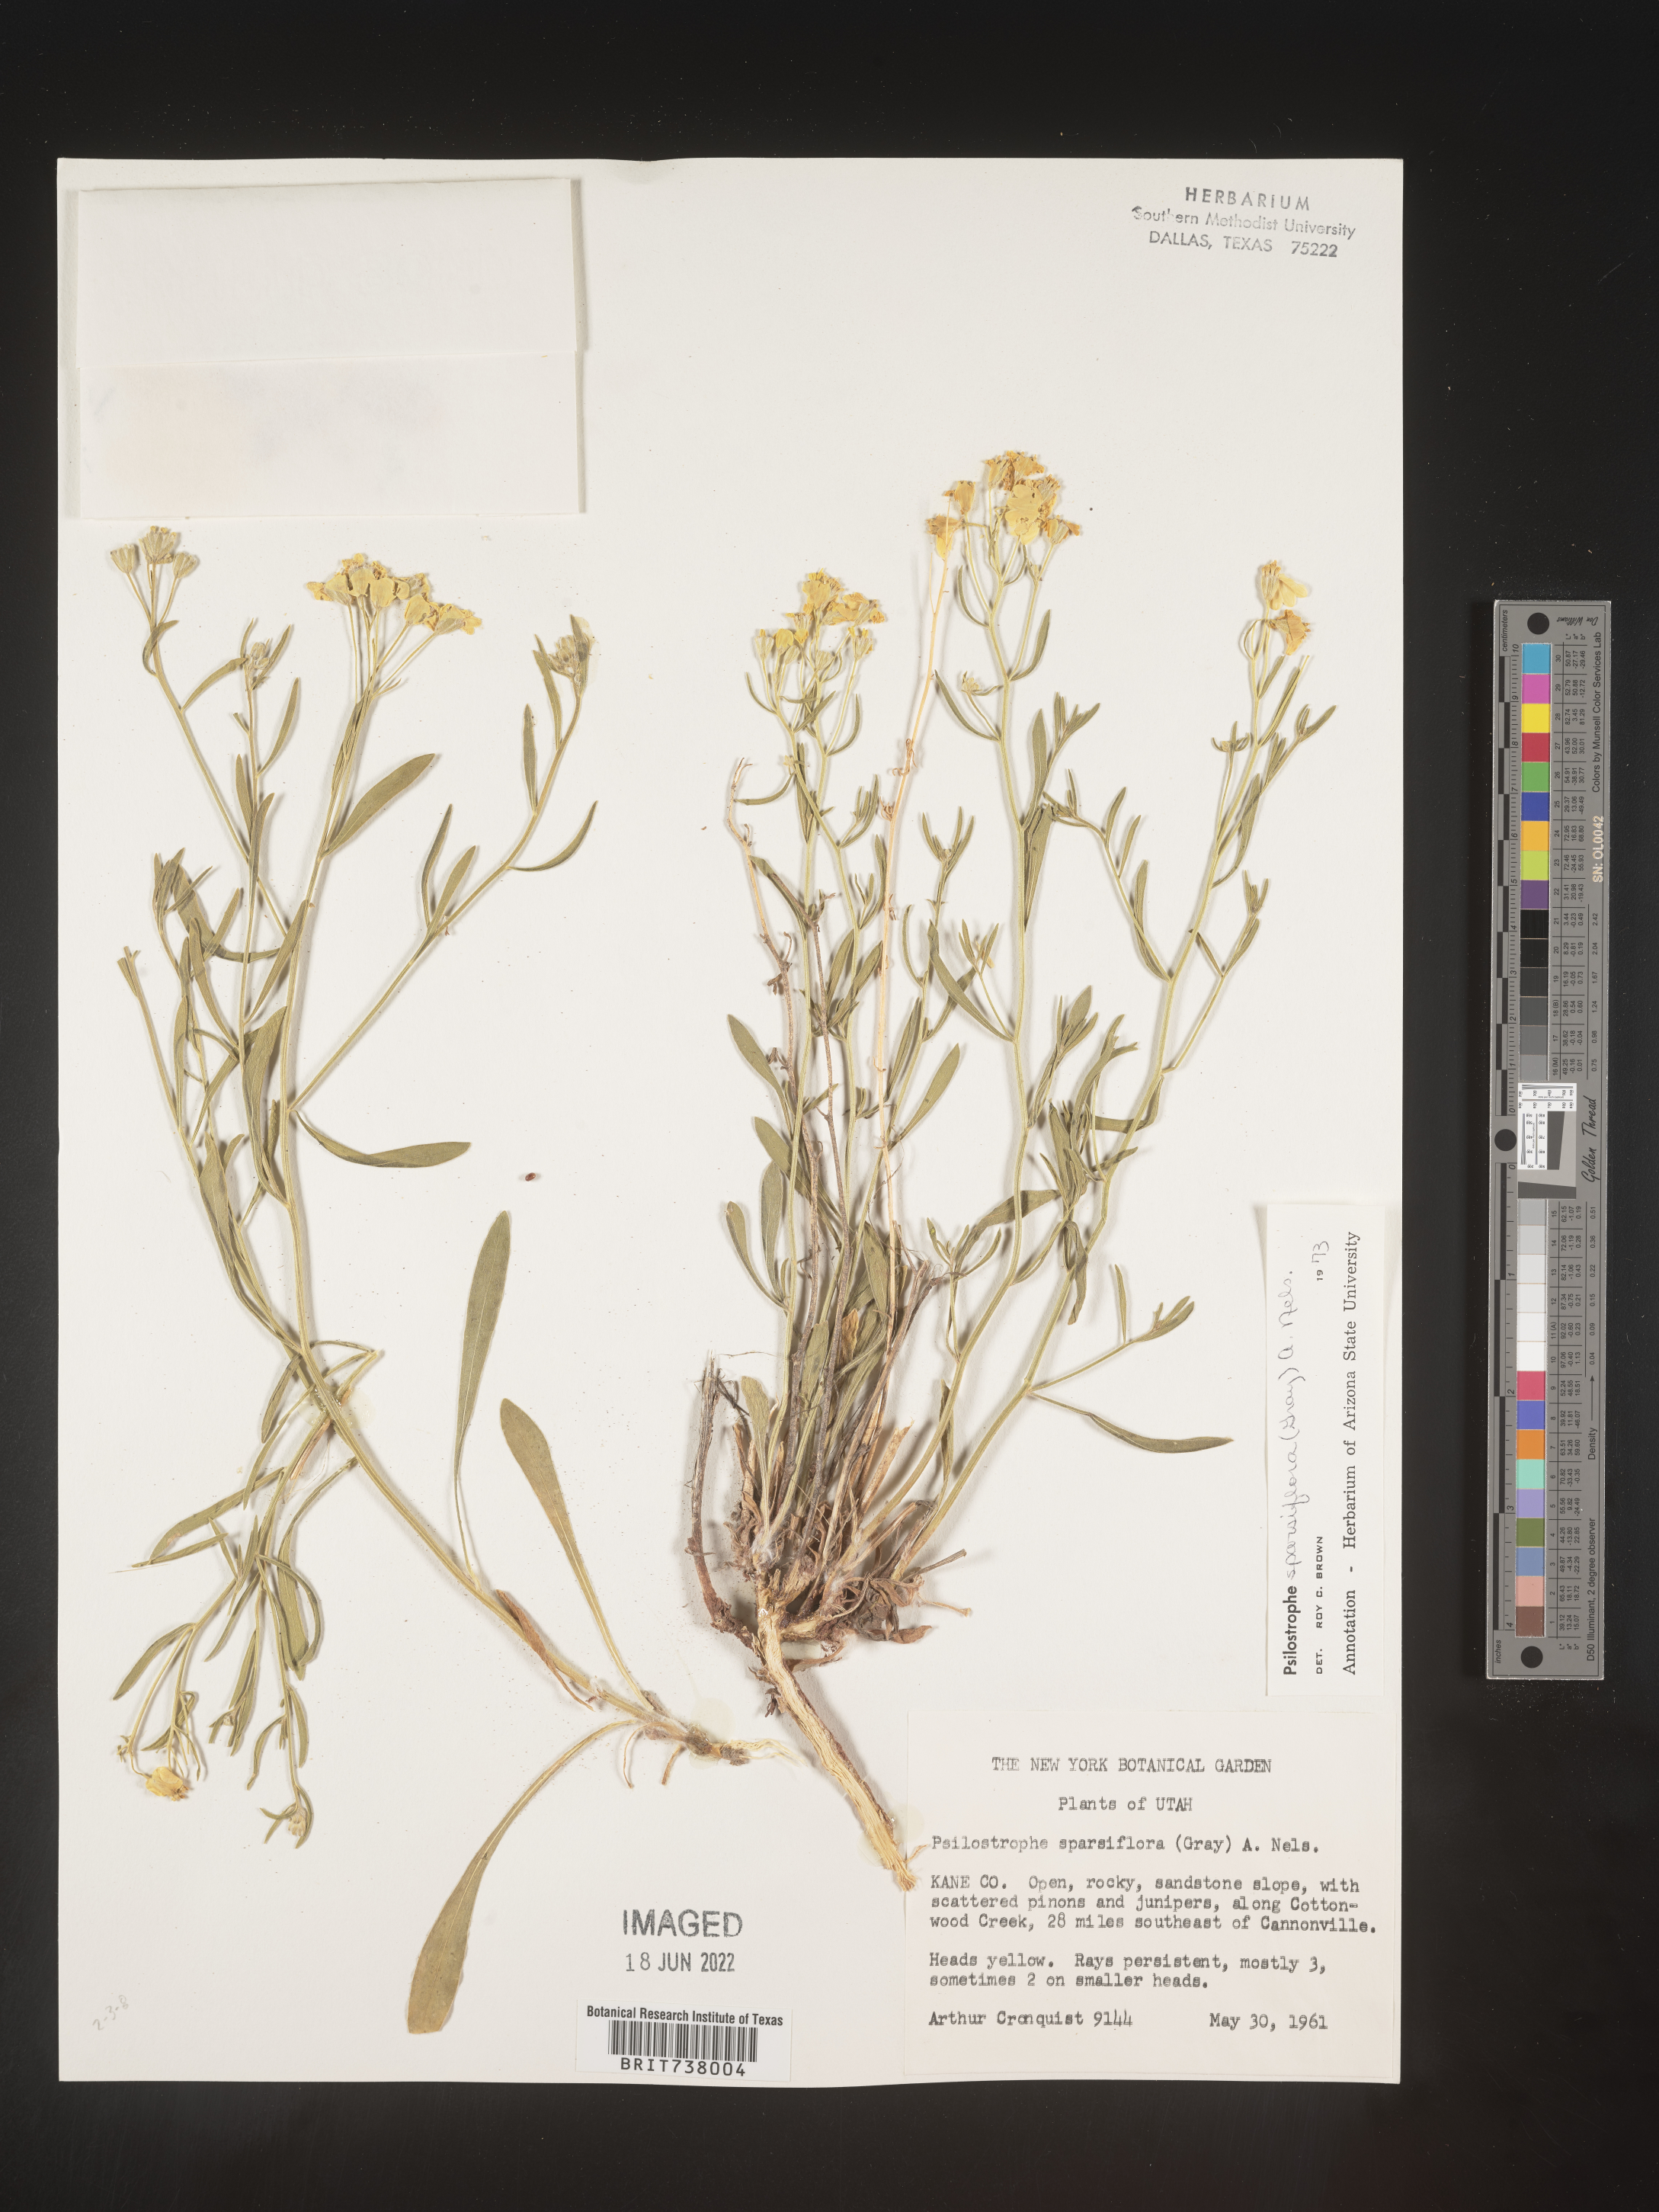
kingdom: Plantae
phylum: Tracheophyta
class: Magnoliopsida
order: Asterales
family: Asteraceae
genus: Psilostrophe
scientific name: Psilostrophe sparsiflora
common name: Green-stem paper-flower
